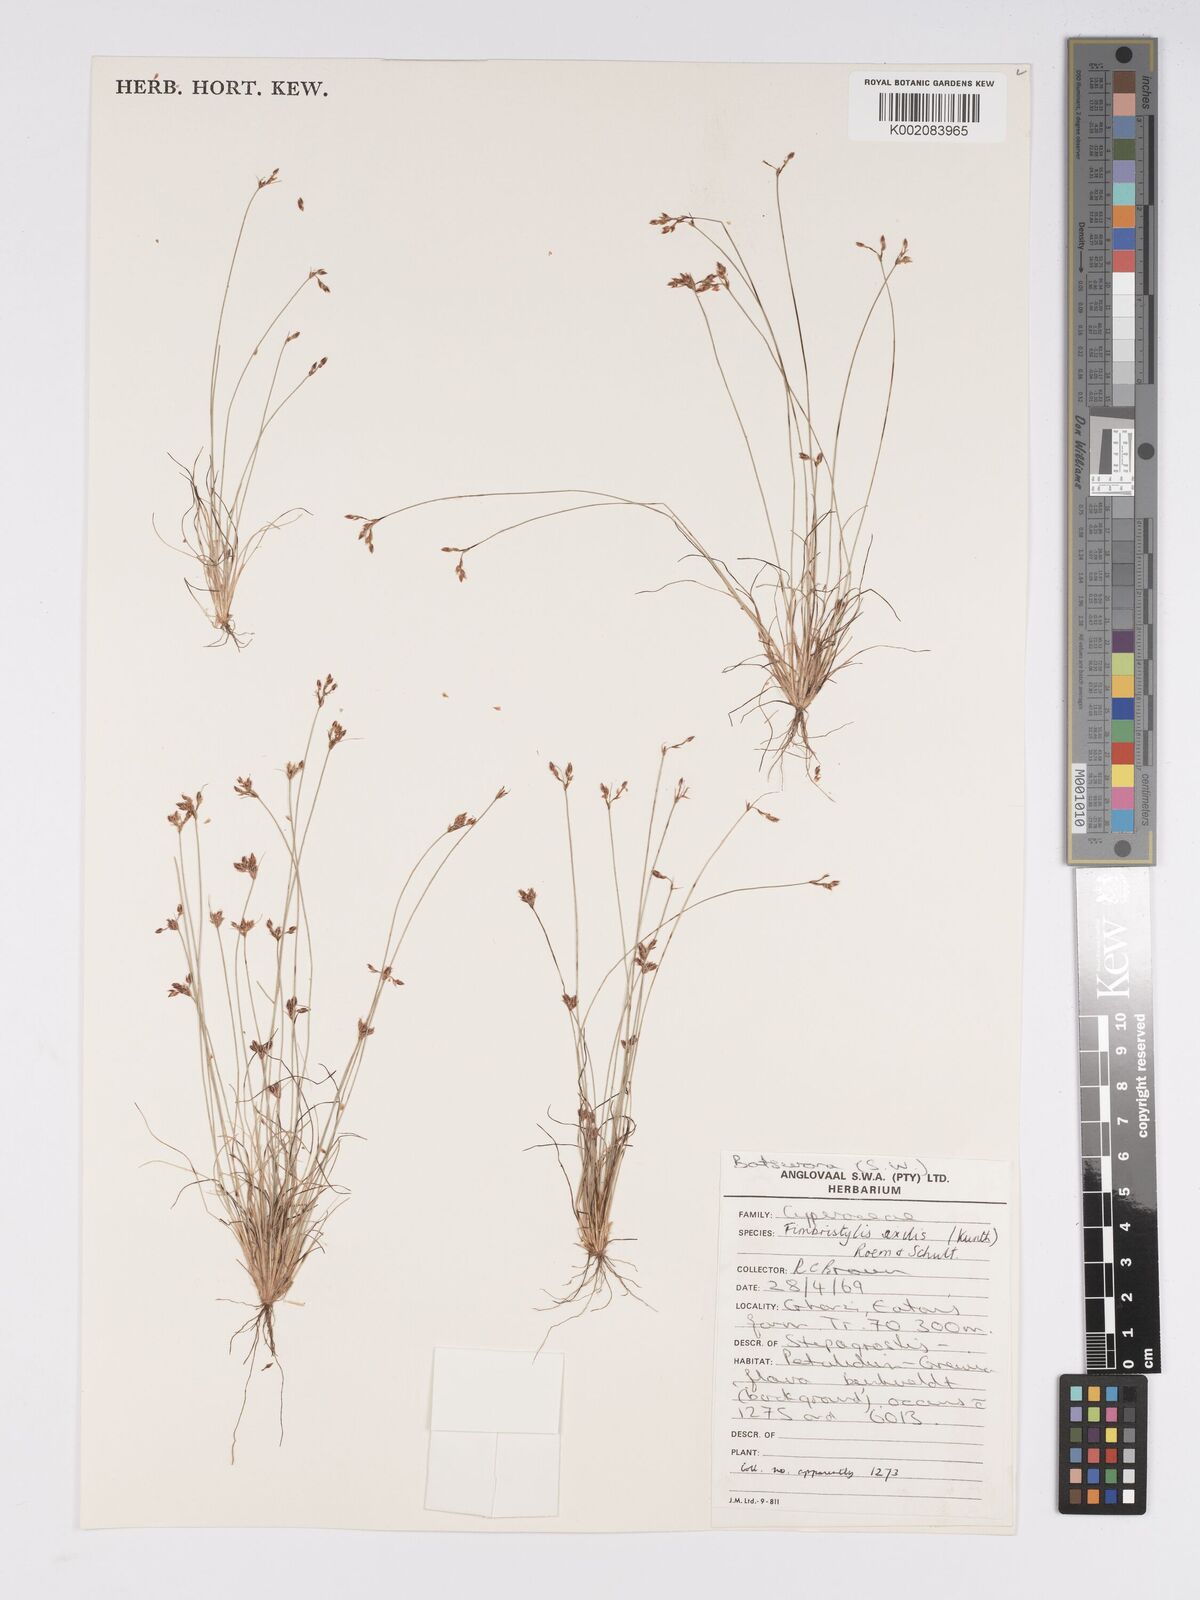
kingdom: Plantae
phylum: Tracheophyta
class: Liliopsida
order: Poales
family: Cyperaceae
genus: Bulbostylis
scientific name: Bulbostylis hispidula
